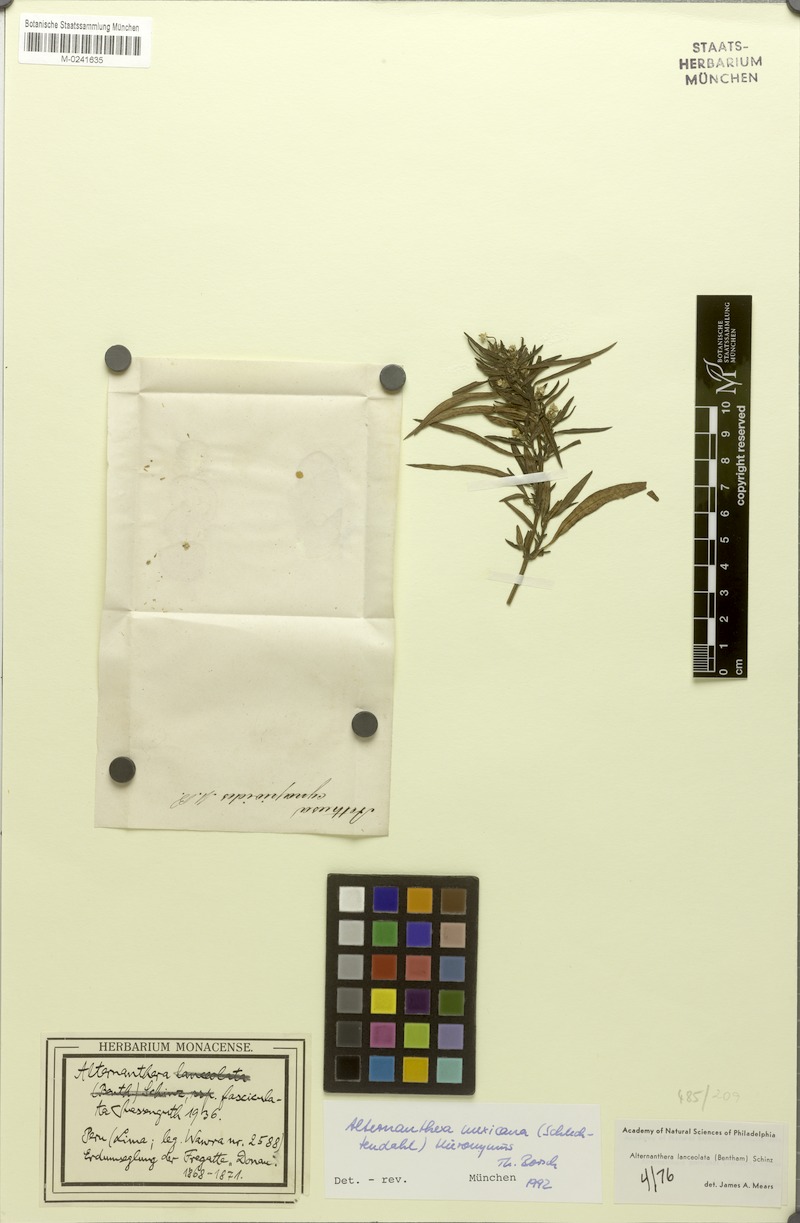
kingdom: Plantae
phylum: Tracheophyta
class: Magnoliopsida
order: Caryophyllales
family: Amaranthaceae
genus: Alternanthera
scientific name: Alternanthera lanceolata
